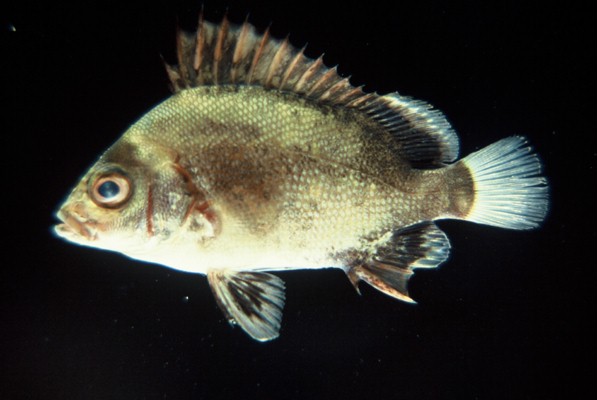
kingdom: Animalia
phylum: Chordata
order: Perciformes
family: Haemulidae
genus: Plectorhinchus
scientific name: Plectorhinchus gibbosus
